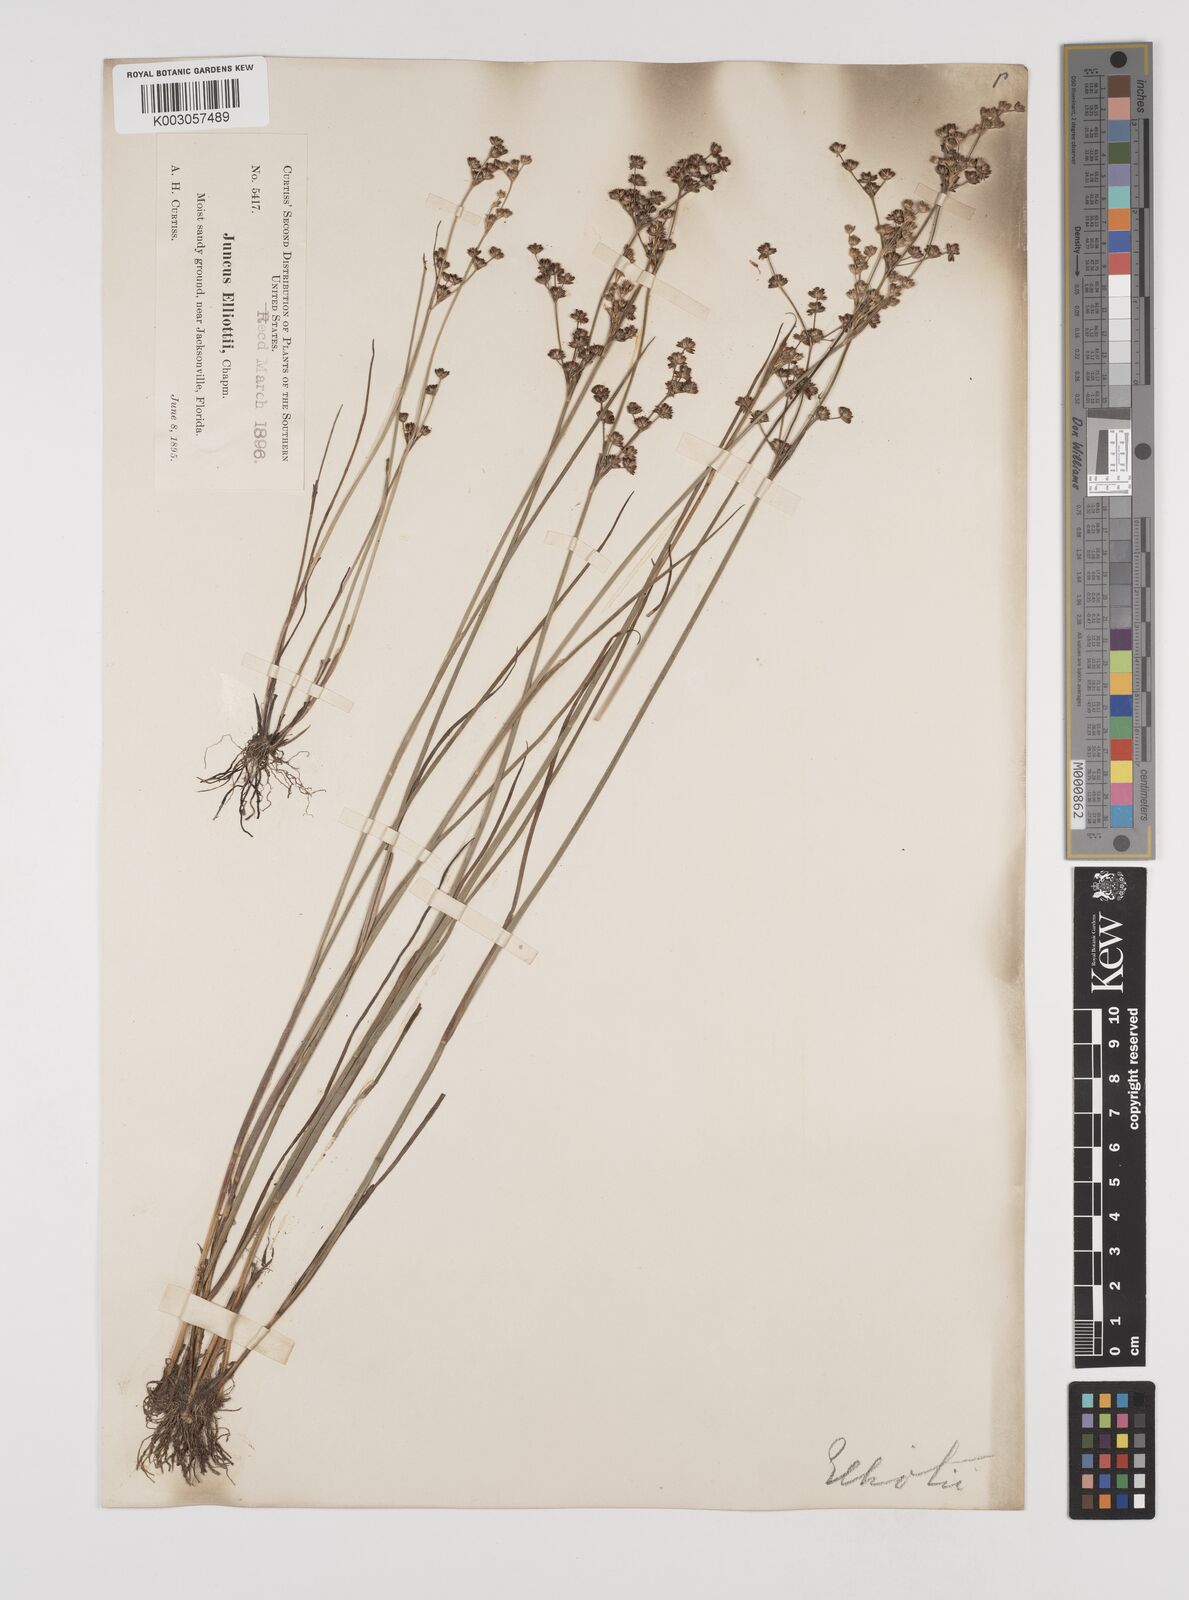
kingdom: Plantae
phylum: Tracheophyta
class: Liliopsida
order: Poales
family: Juncaceae
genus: Juncus
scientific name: Juncus elliottii
